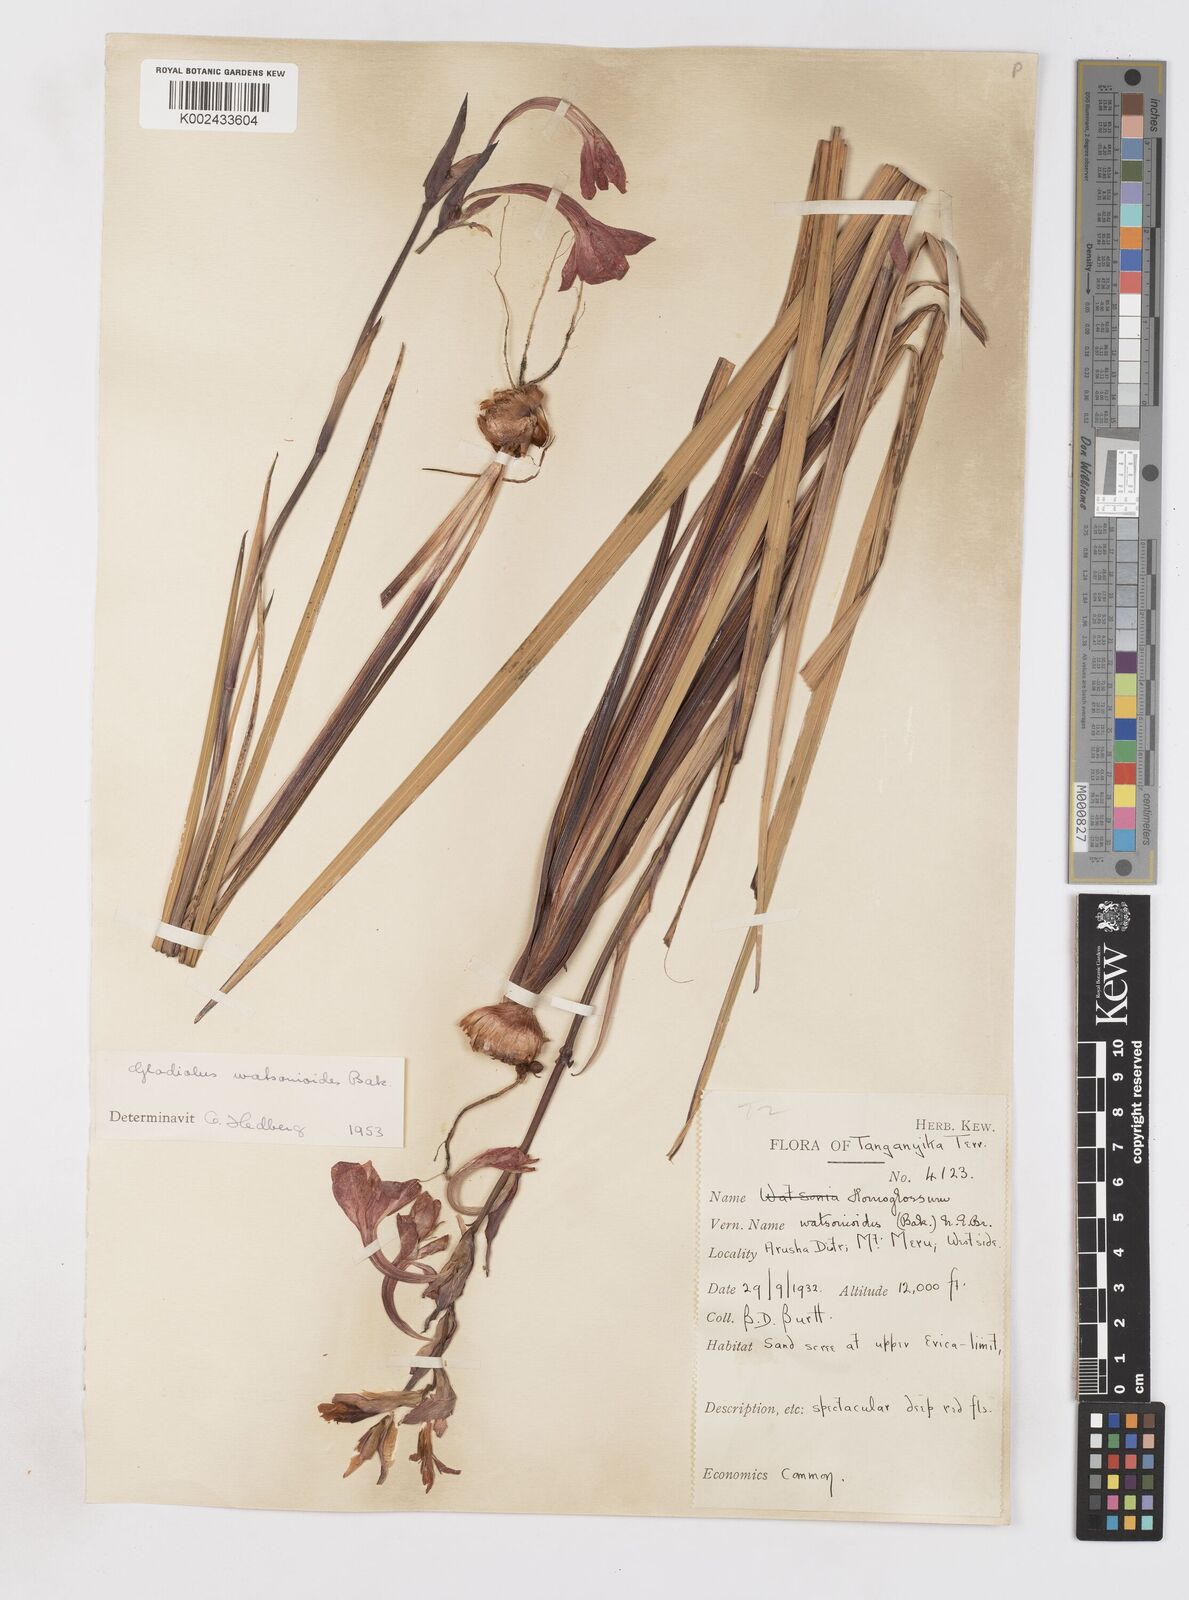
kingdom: Plantae
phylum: Tracheophyta
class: Liliopsida
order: Asparagales
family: Iridaceae
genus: Gladiolus
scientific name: Gladiolus watsonioides
